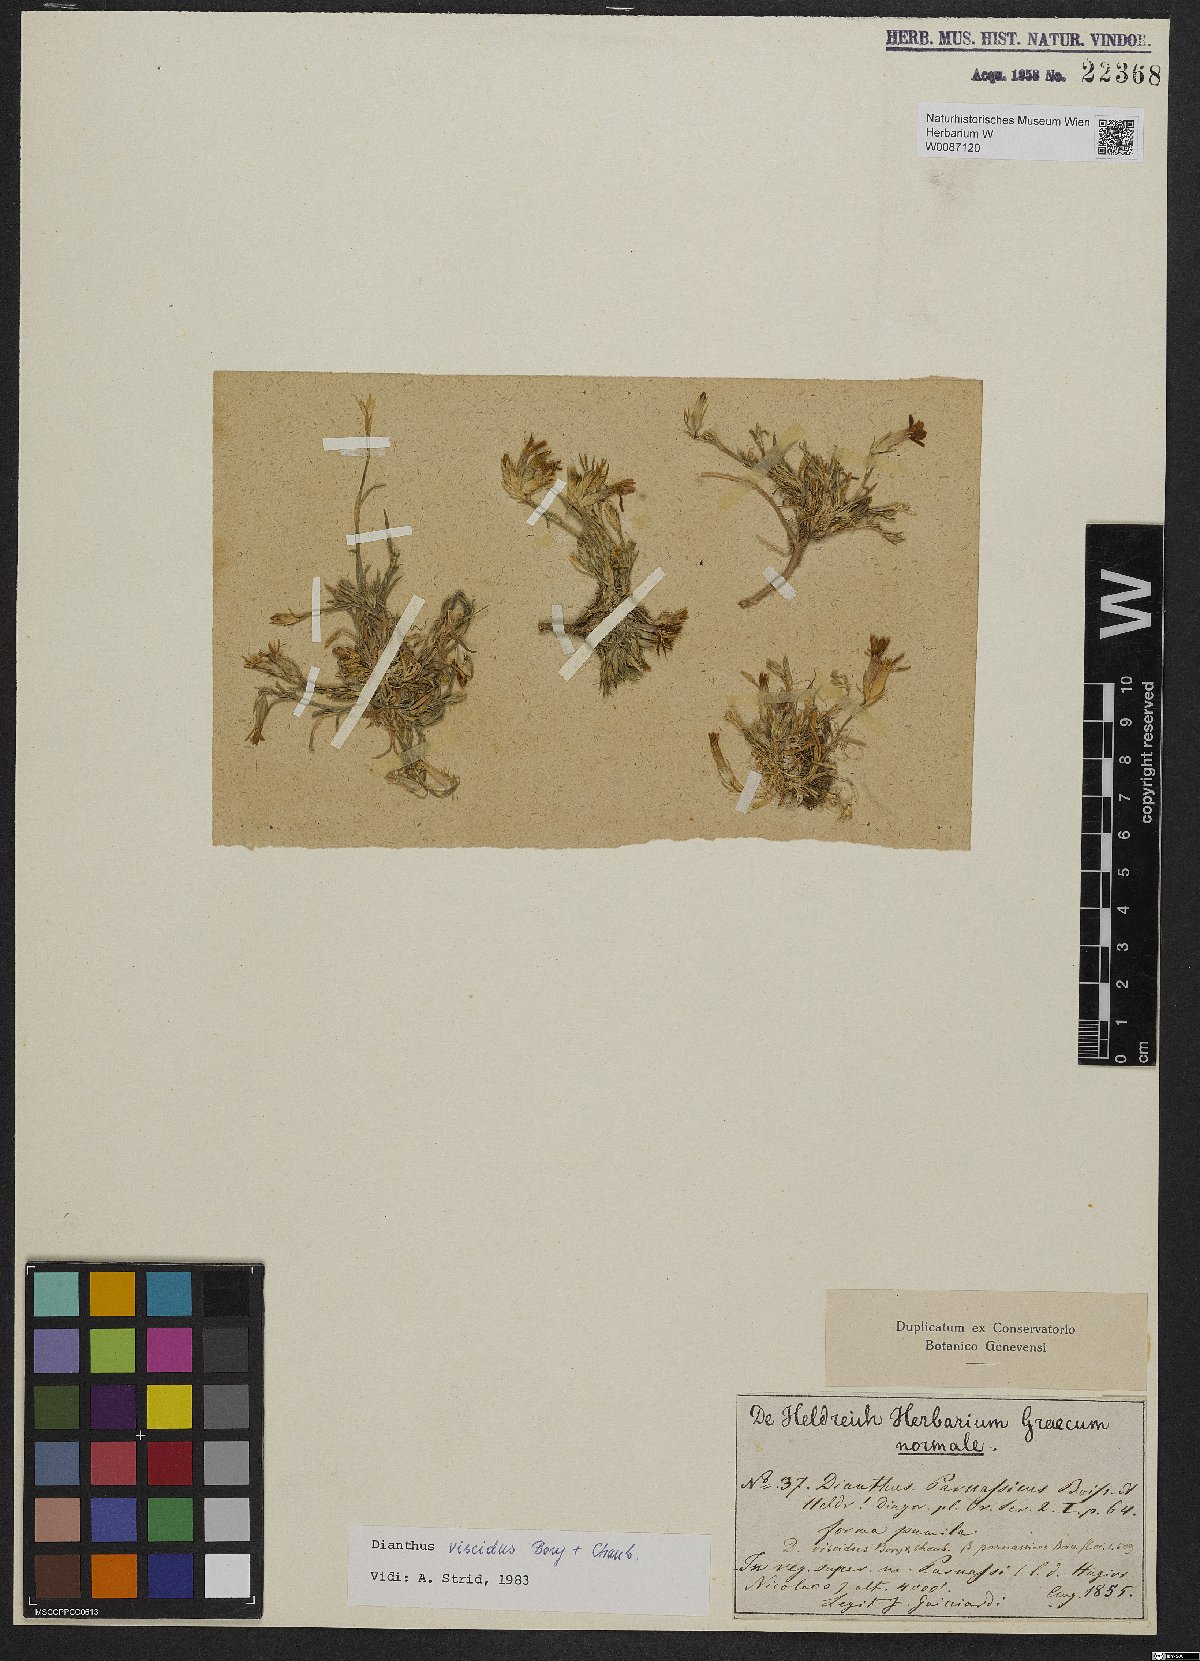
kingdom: Plantae
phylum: Tracheophyta
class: Magnoliopsida
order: Caryophyllales
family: Caryophyllaceae
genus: Dianthus
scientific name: Dianthus viscidus
